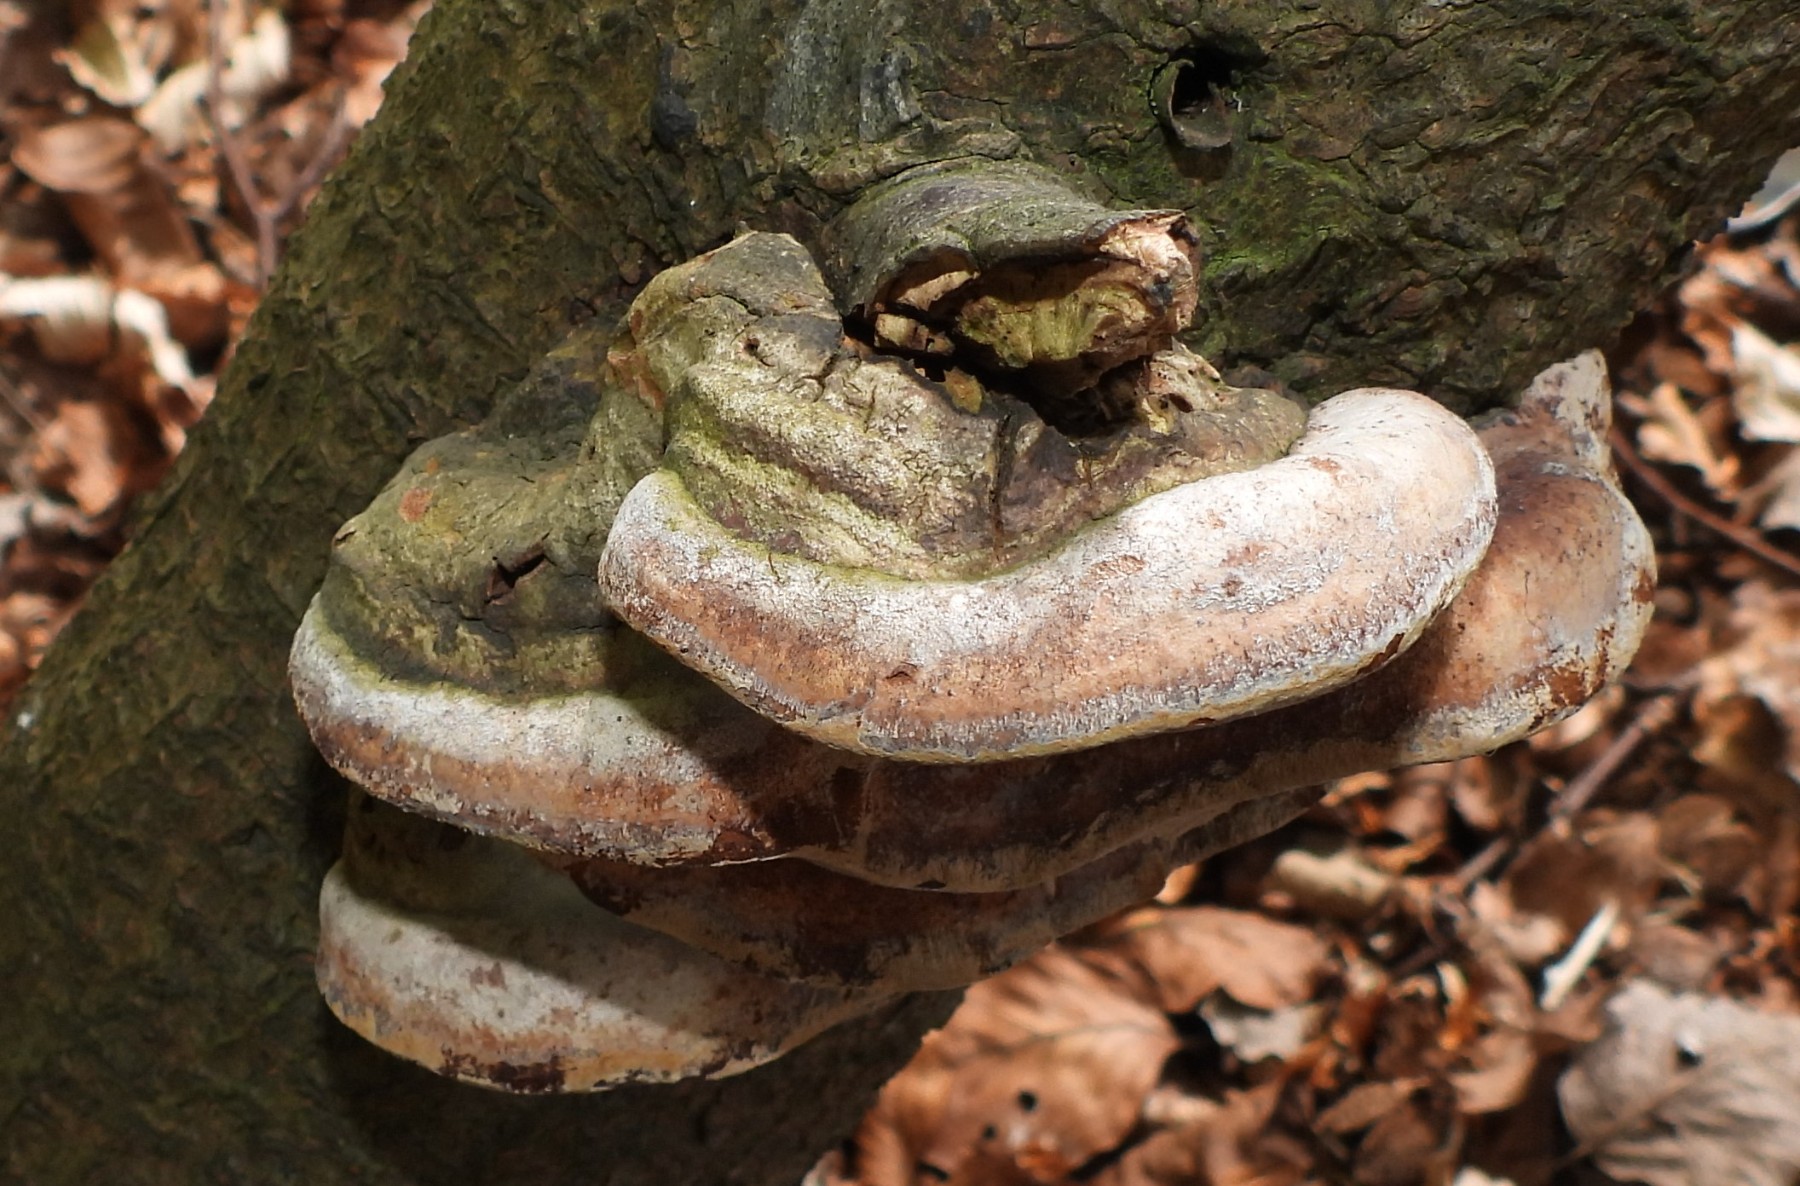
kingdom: Fungi
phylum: Basidiomycota
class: Agaricomycetes
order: Hymenochaetales
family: Hymenochaetaceae
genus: Phellinus
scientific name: Phellinus pomaceus
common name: blomme-ildporesvamp
